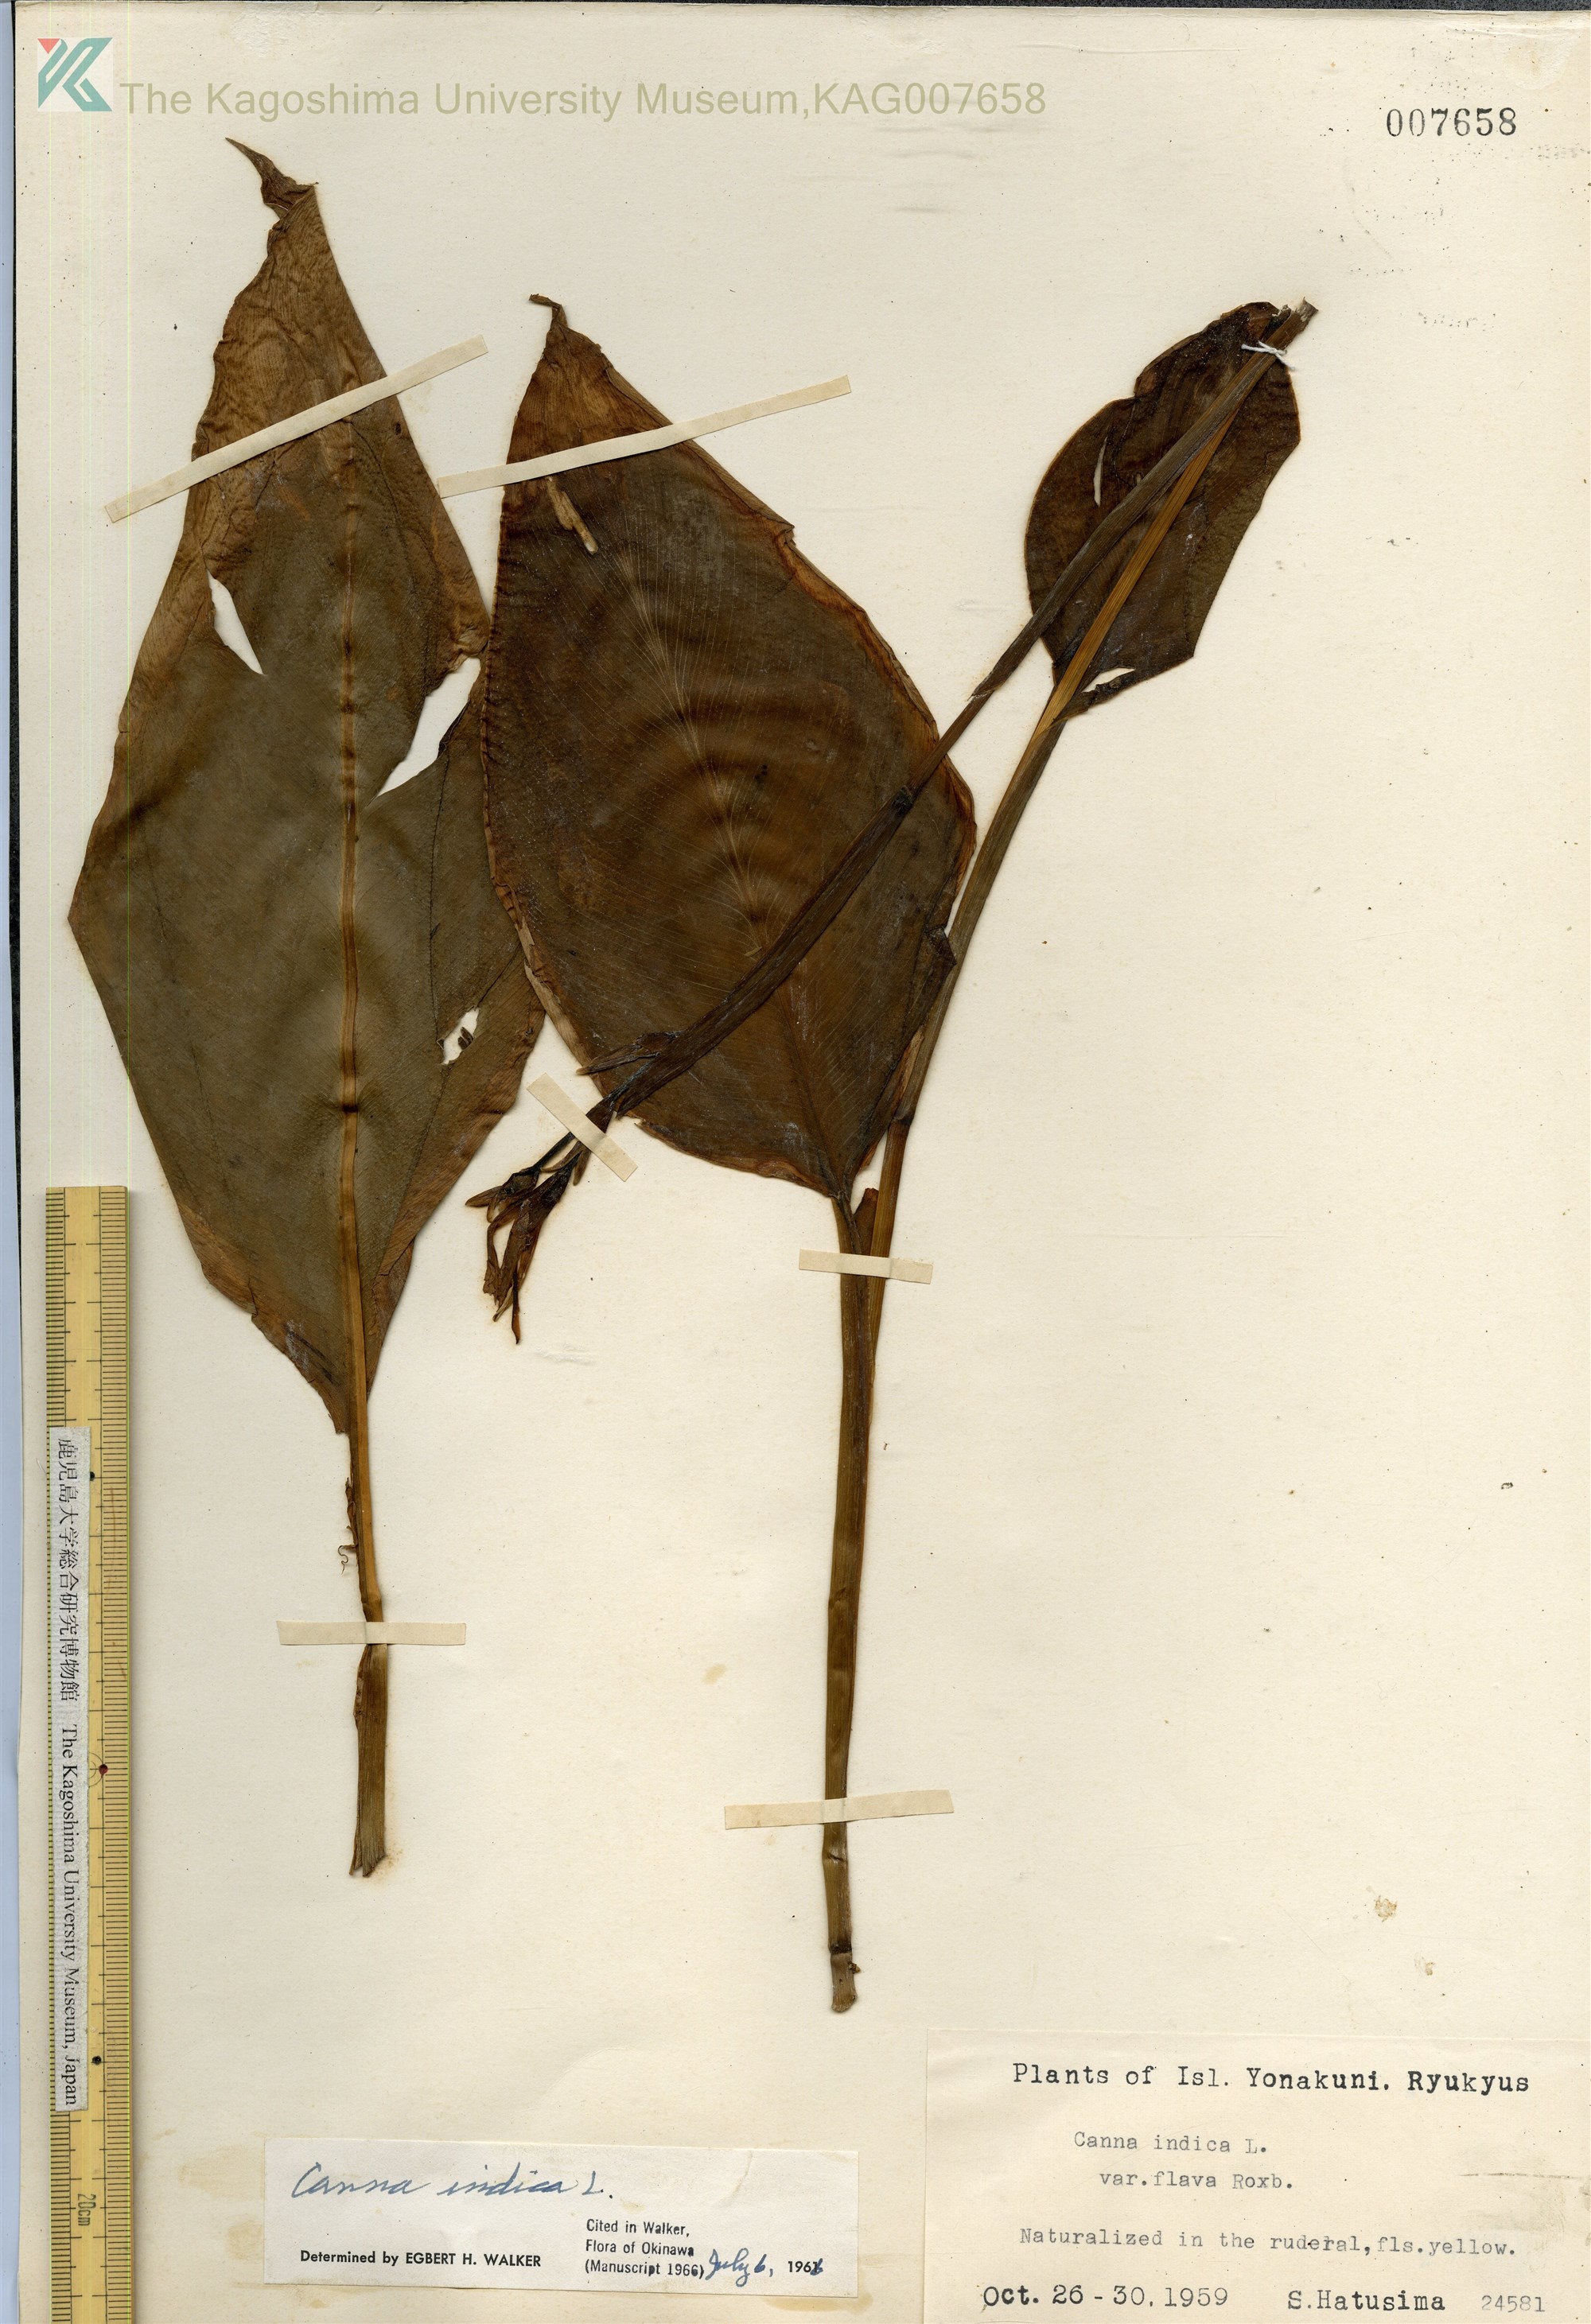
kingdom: Plantae
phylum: Tracheophyta
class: Liliopsida
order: Zingiberales
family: Cannaceae
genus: Canna
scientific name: Canna indica
